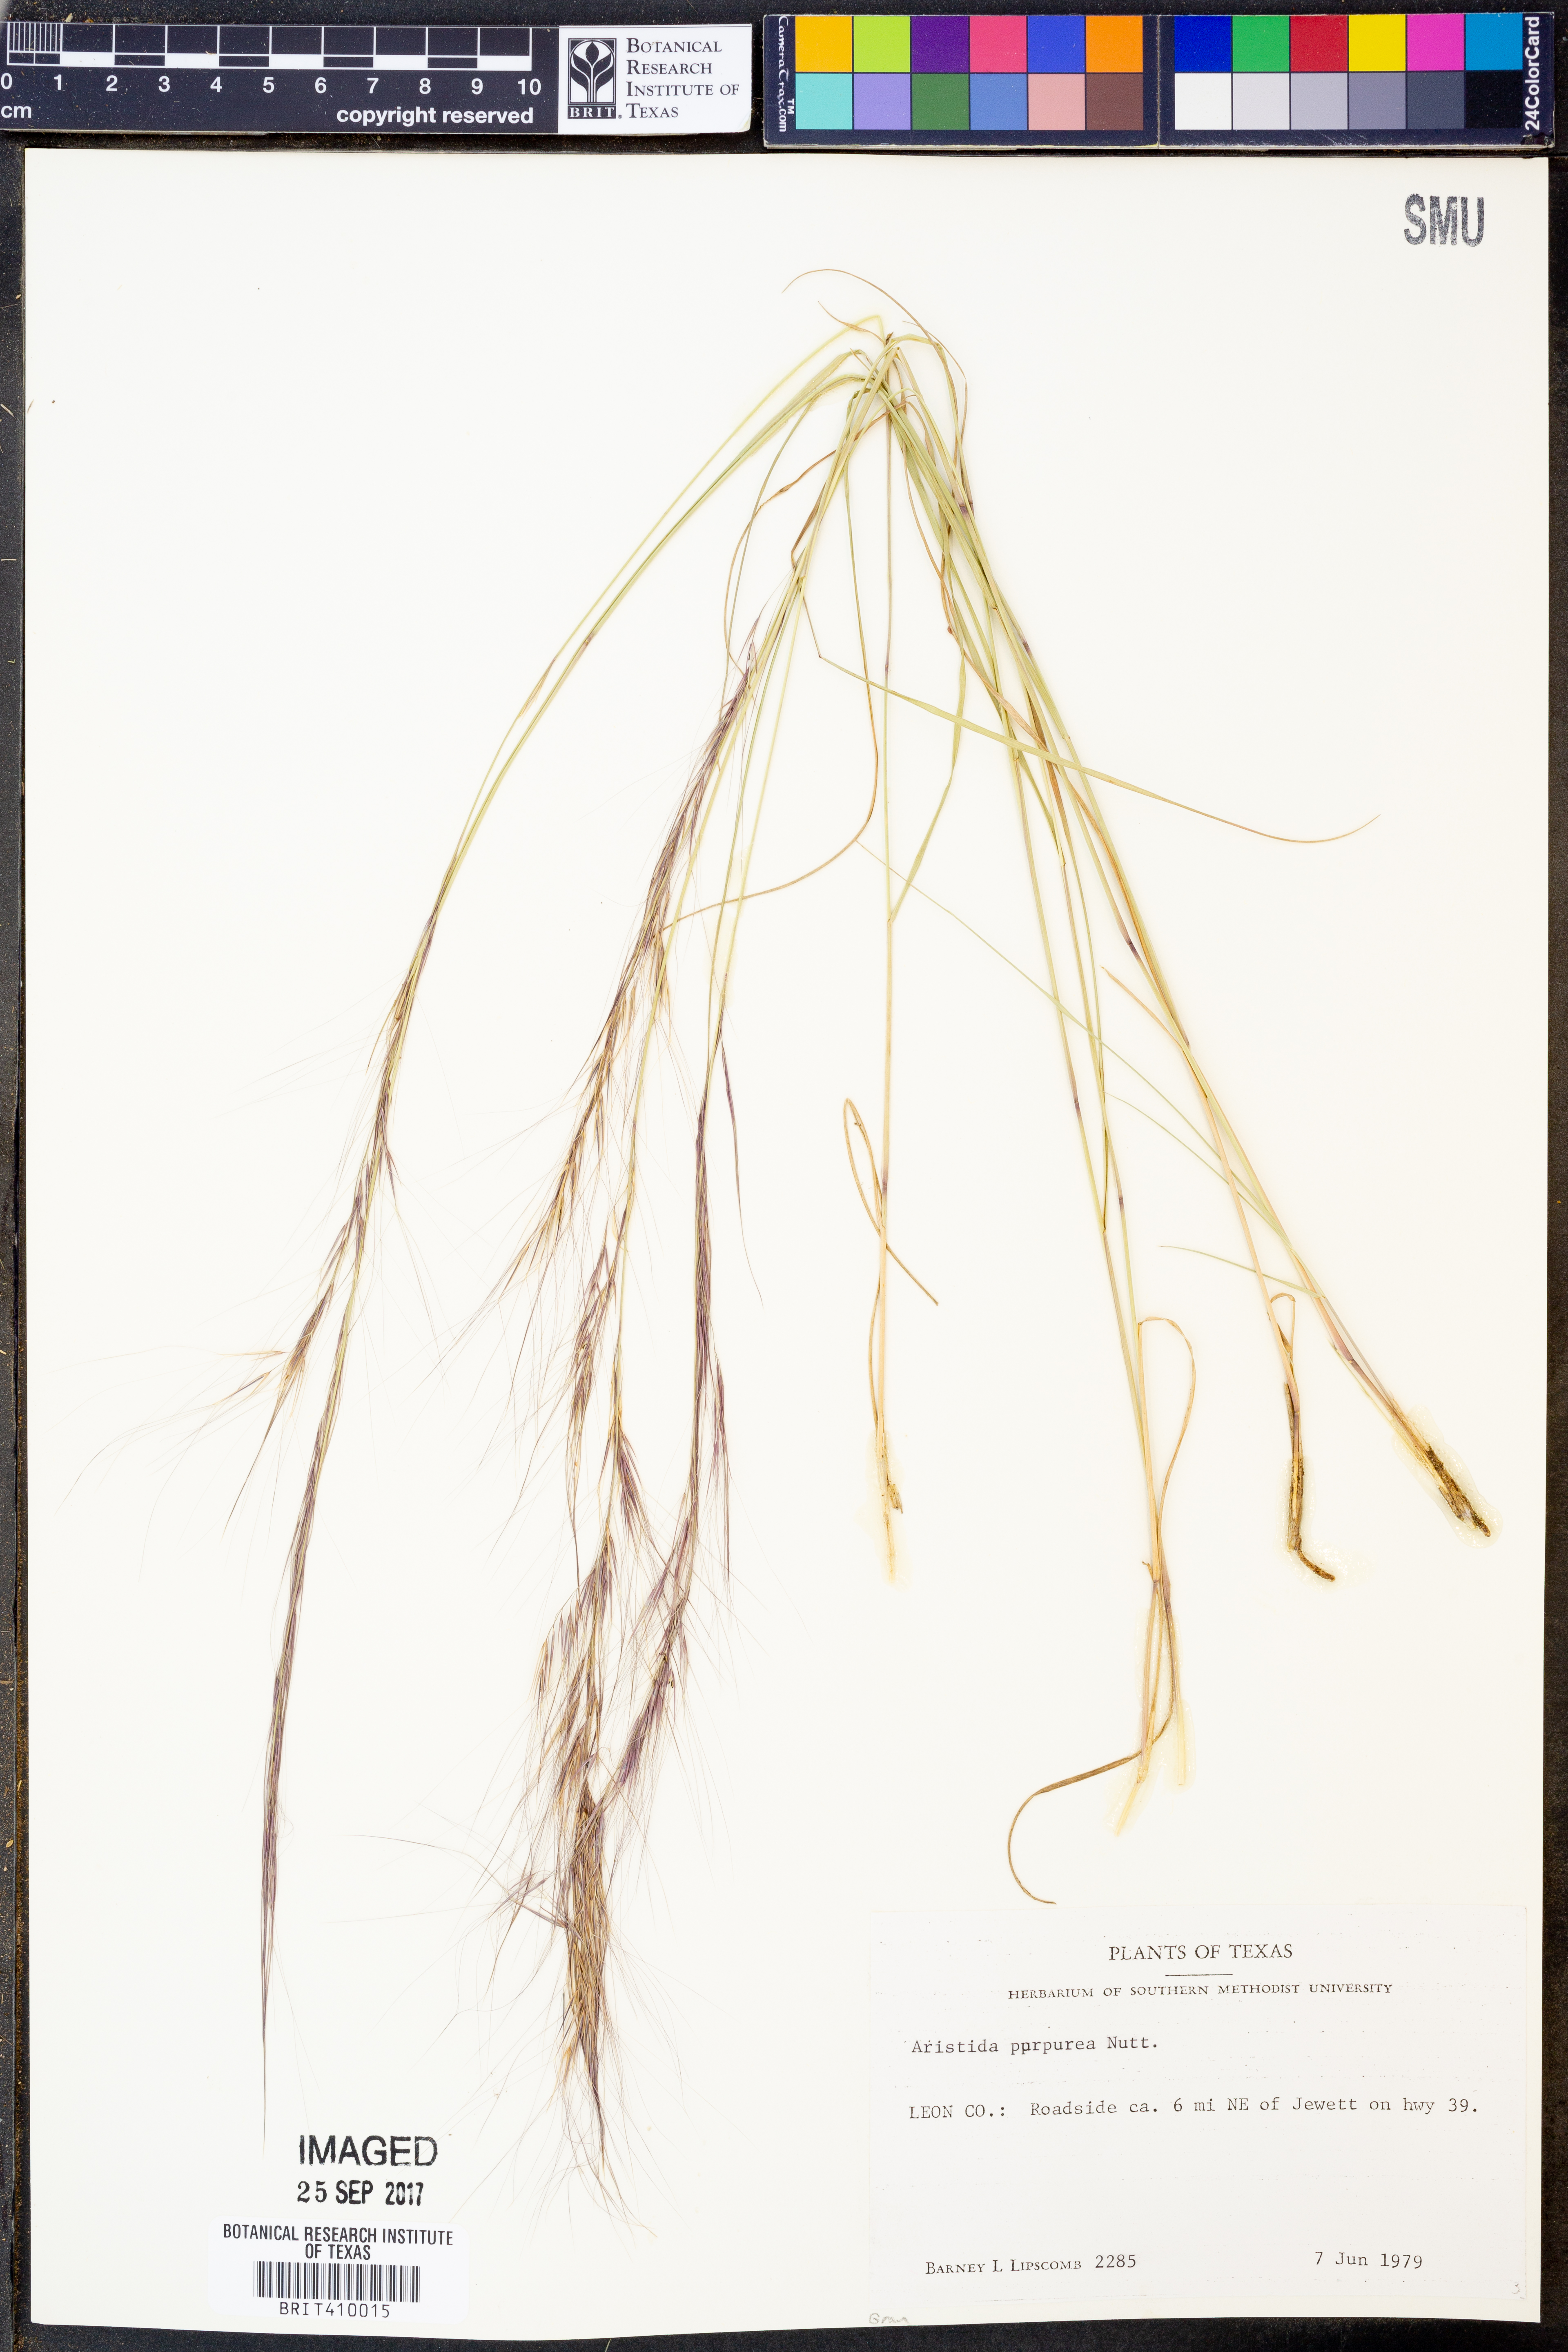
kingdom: Plantae
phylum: Tracheophyta
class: Liliopsida
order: Poales
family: Poaceae
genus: Aristida
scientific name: Aristida purpurea
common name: Purple threeawn
